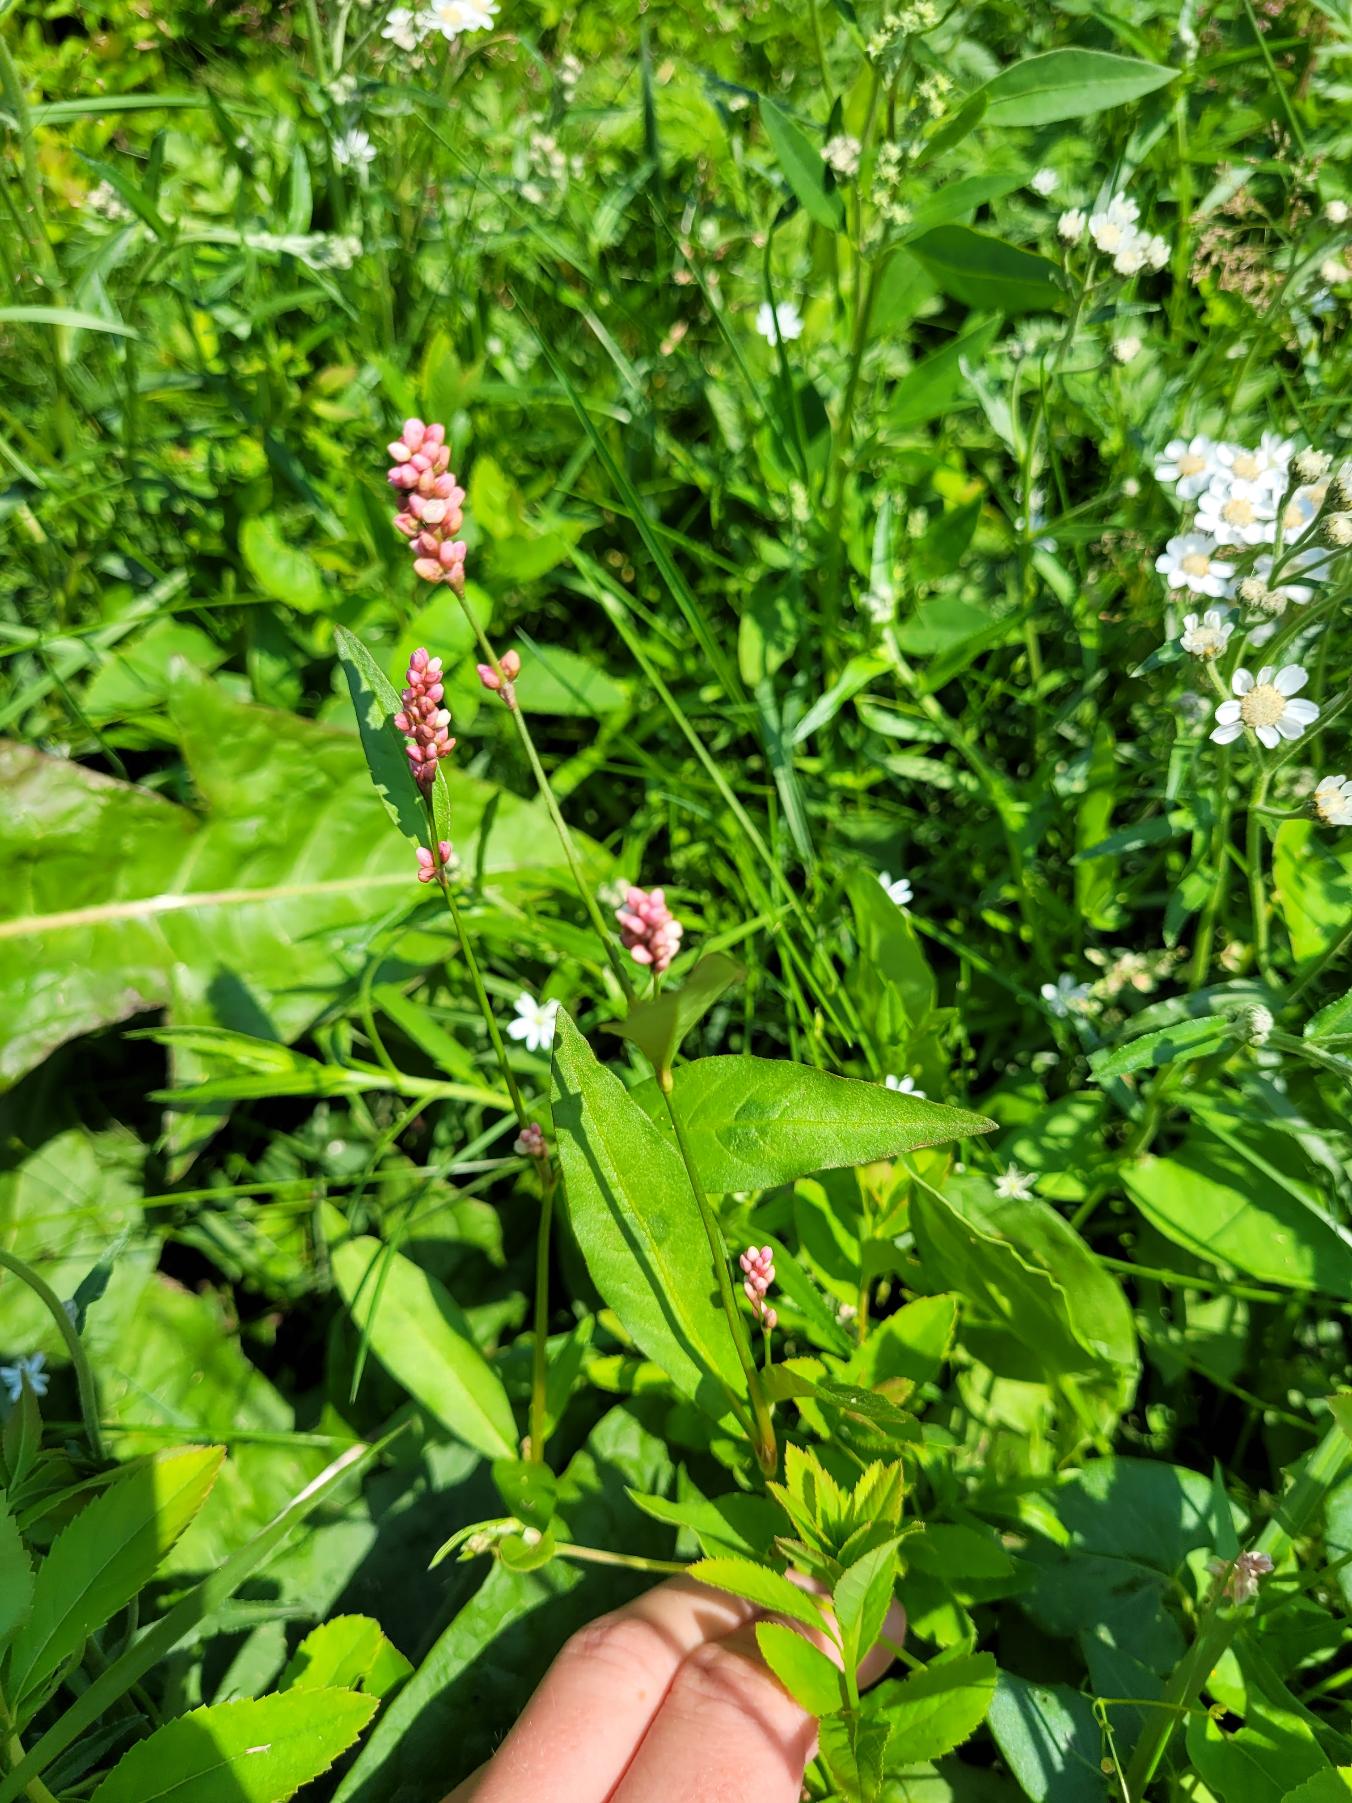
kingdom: Plantae
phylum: Tracheophyta
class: Magnoliopsida
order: Caryophyllales
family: Polygonaceae
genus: Persicaria
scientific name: Persicaria maculosa
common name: Fersken-pileurt
